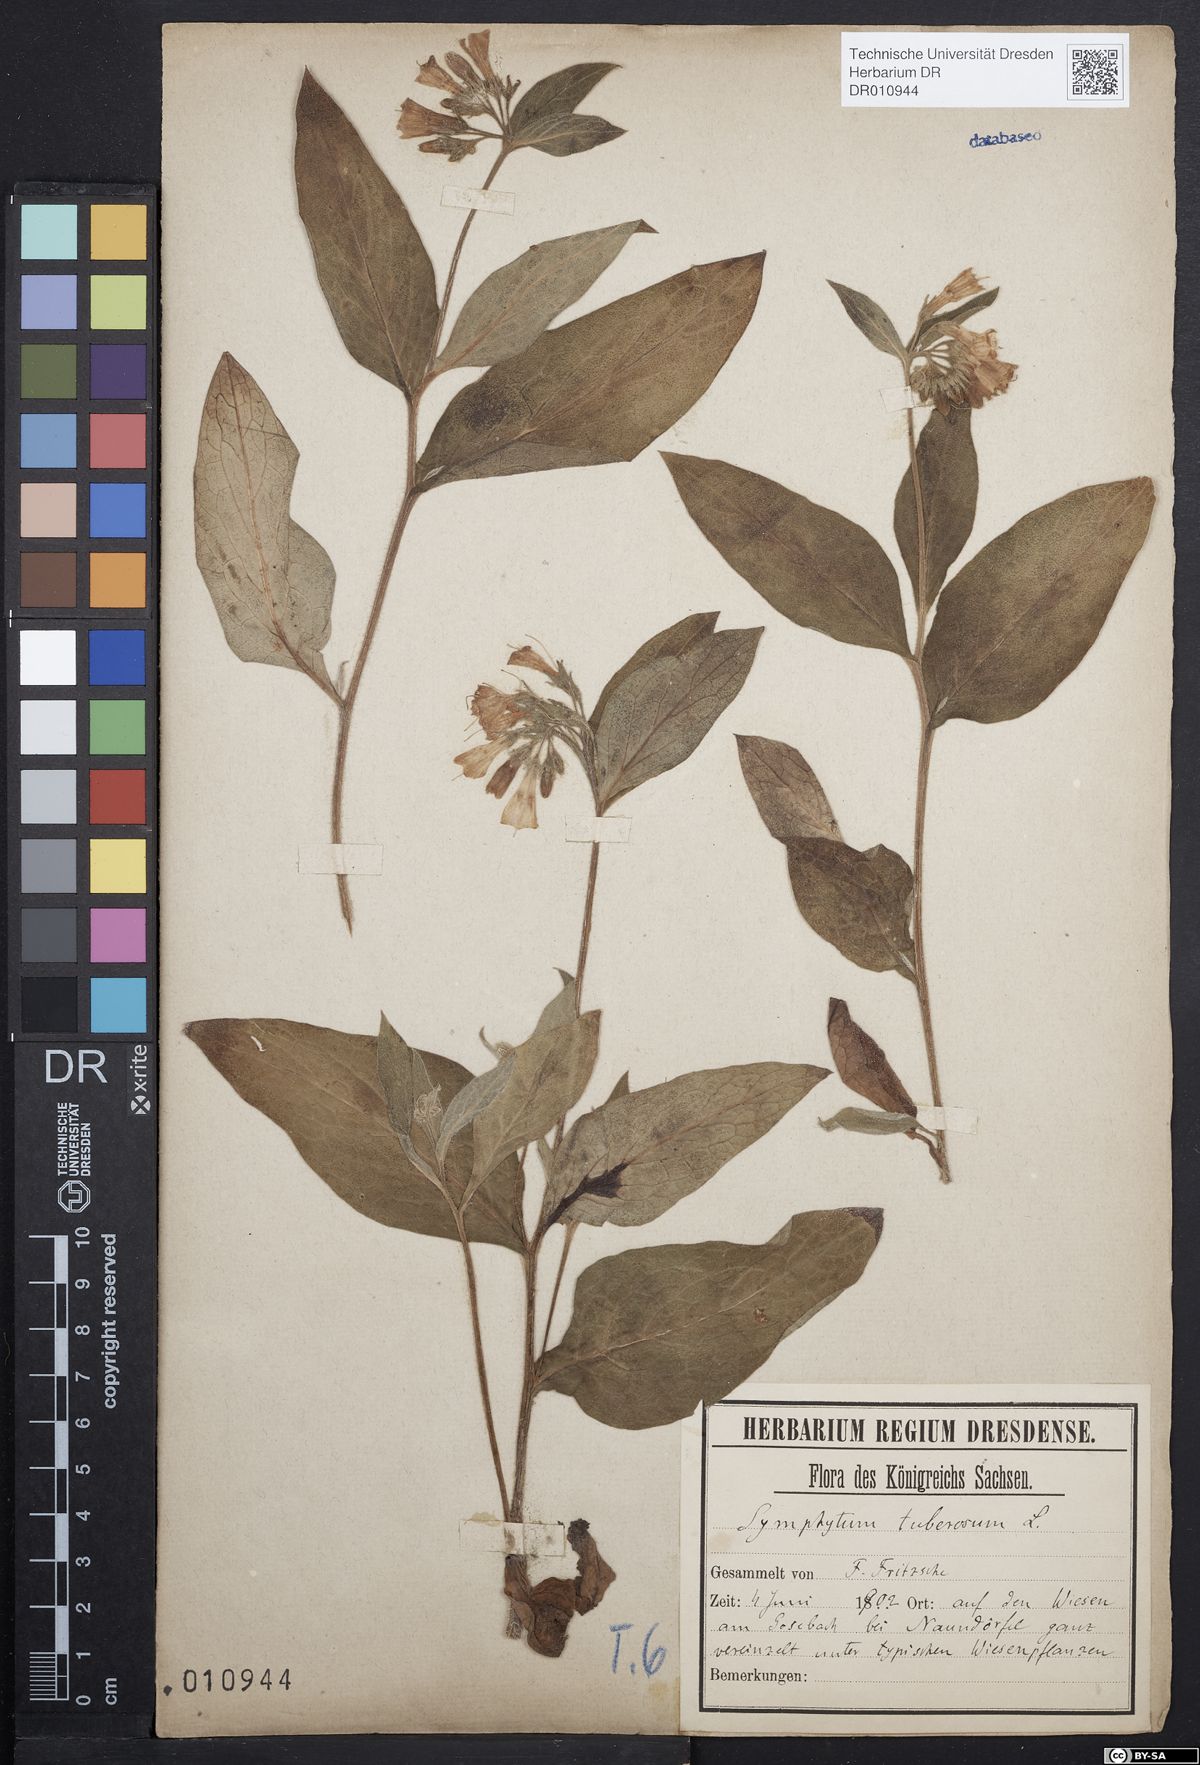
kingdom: Plantae
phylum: Tracheophyta
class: Magnoliopsida
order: Boraginales
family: Boraginaceae
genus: Symphytum
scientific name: Symphytum tuberosum
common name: Tuberous comfrey
